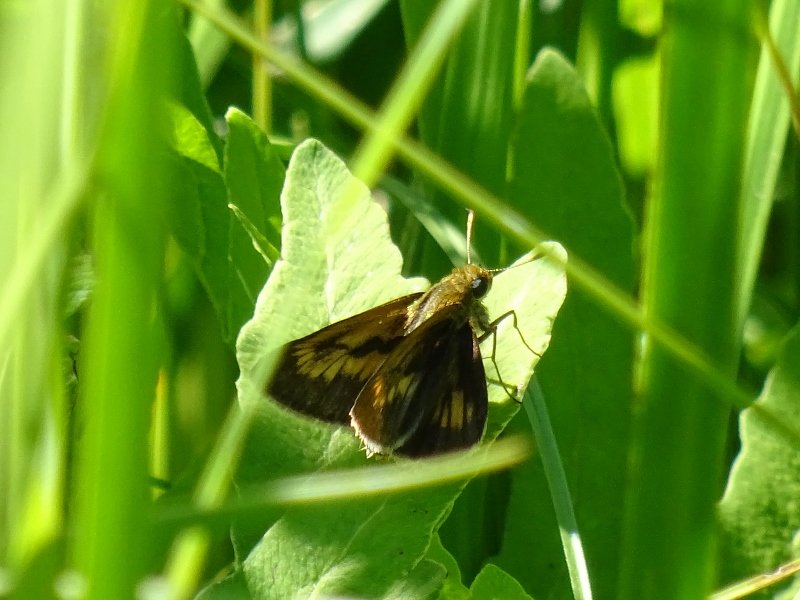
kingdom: Animalia
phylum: Arthropoda
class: Insecta
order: Lepidoptera
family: Hesperiidae
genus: Euphyes
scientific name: Euphyes conspicua
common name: Black Dash
